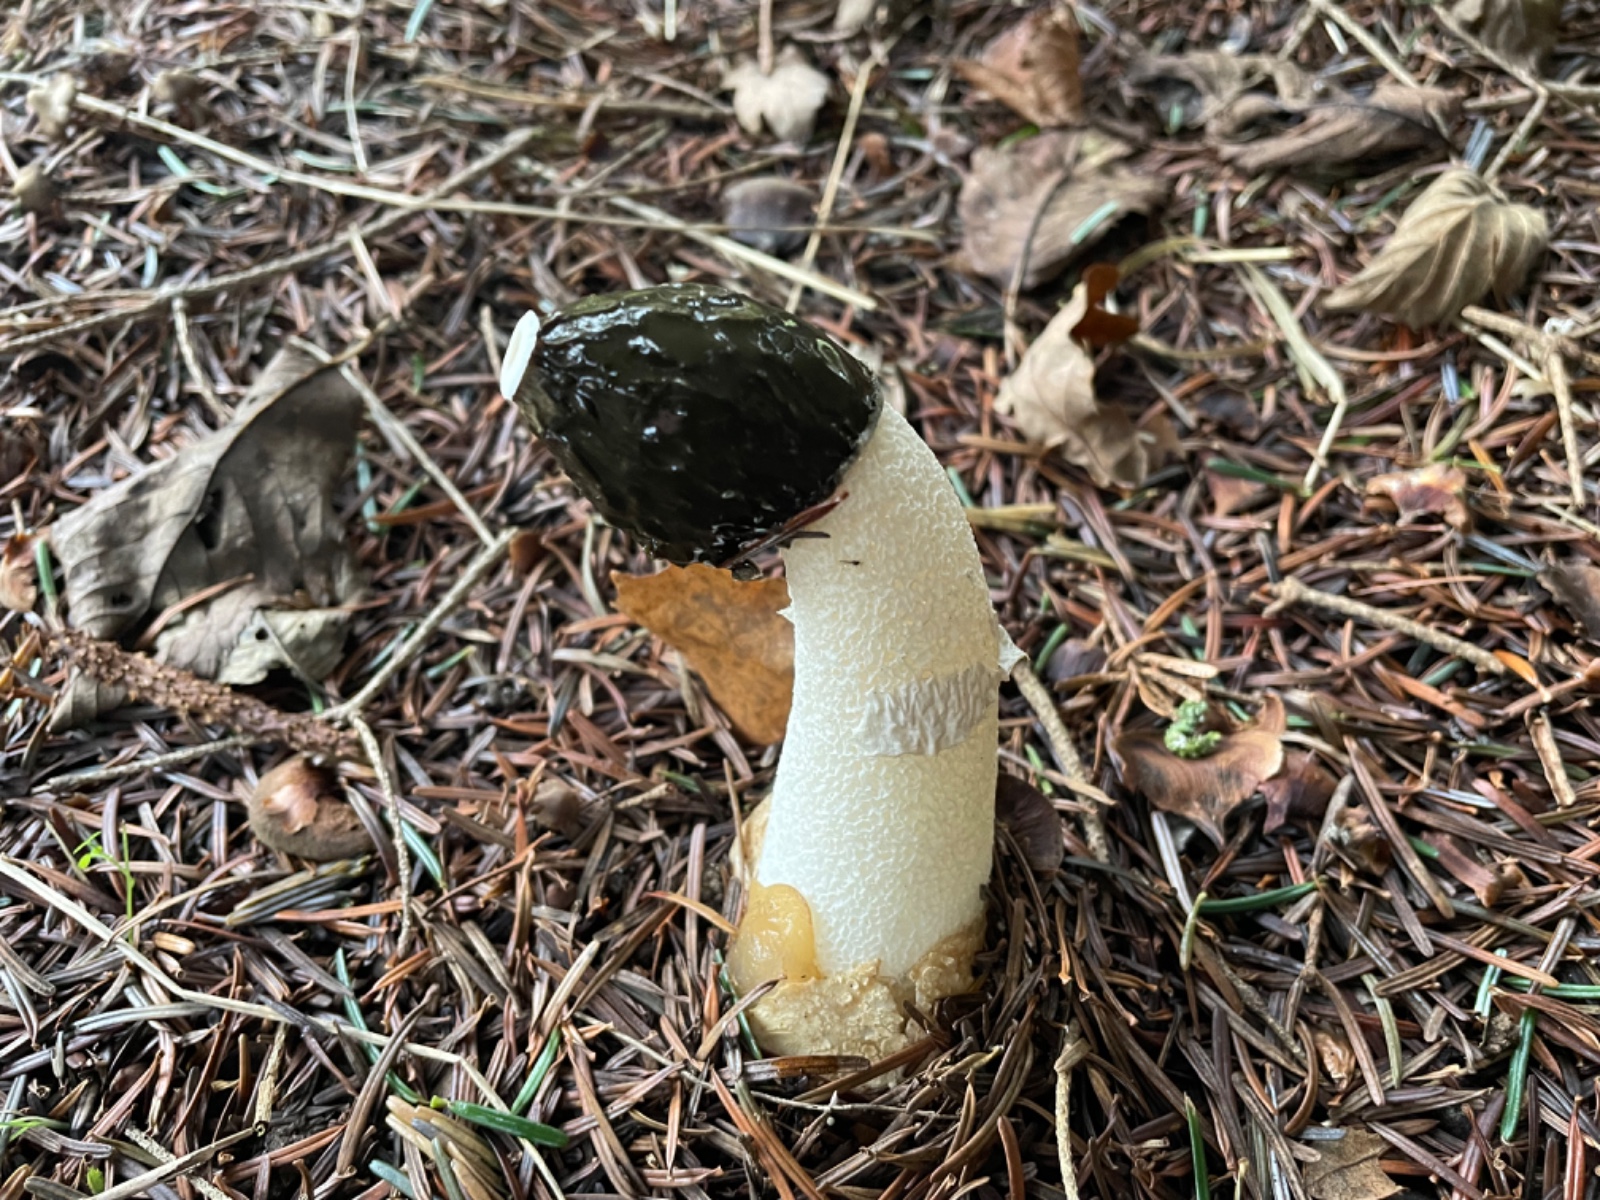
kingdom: Fungi
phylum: Basidiomycota
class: Agaricomycetes
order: Phallales
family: Phallaceae
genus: Phallus
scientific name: Phallus impudicus
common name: almindelig stinksvamp
